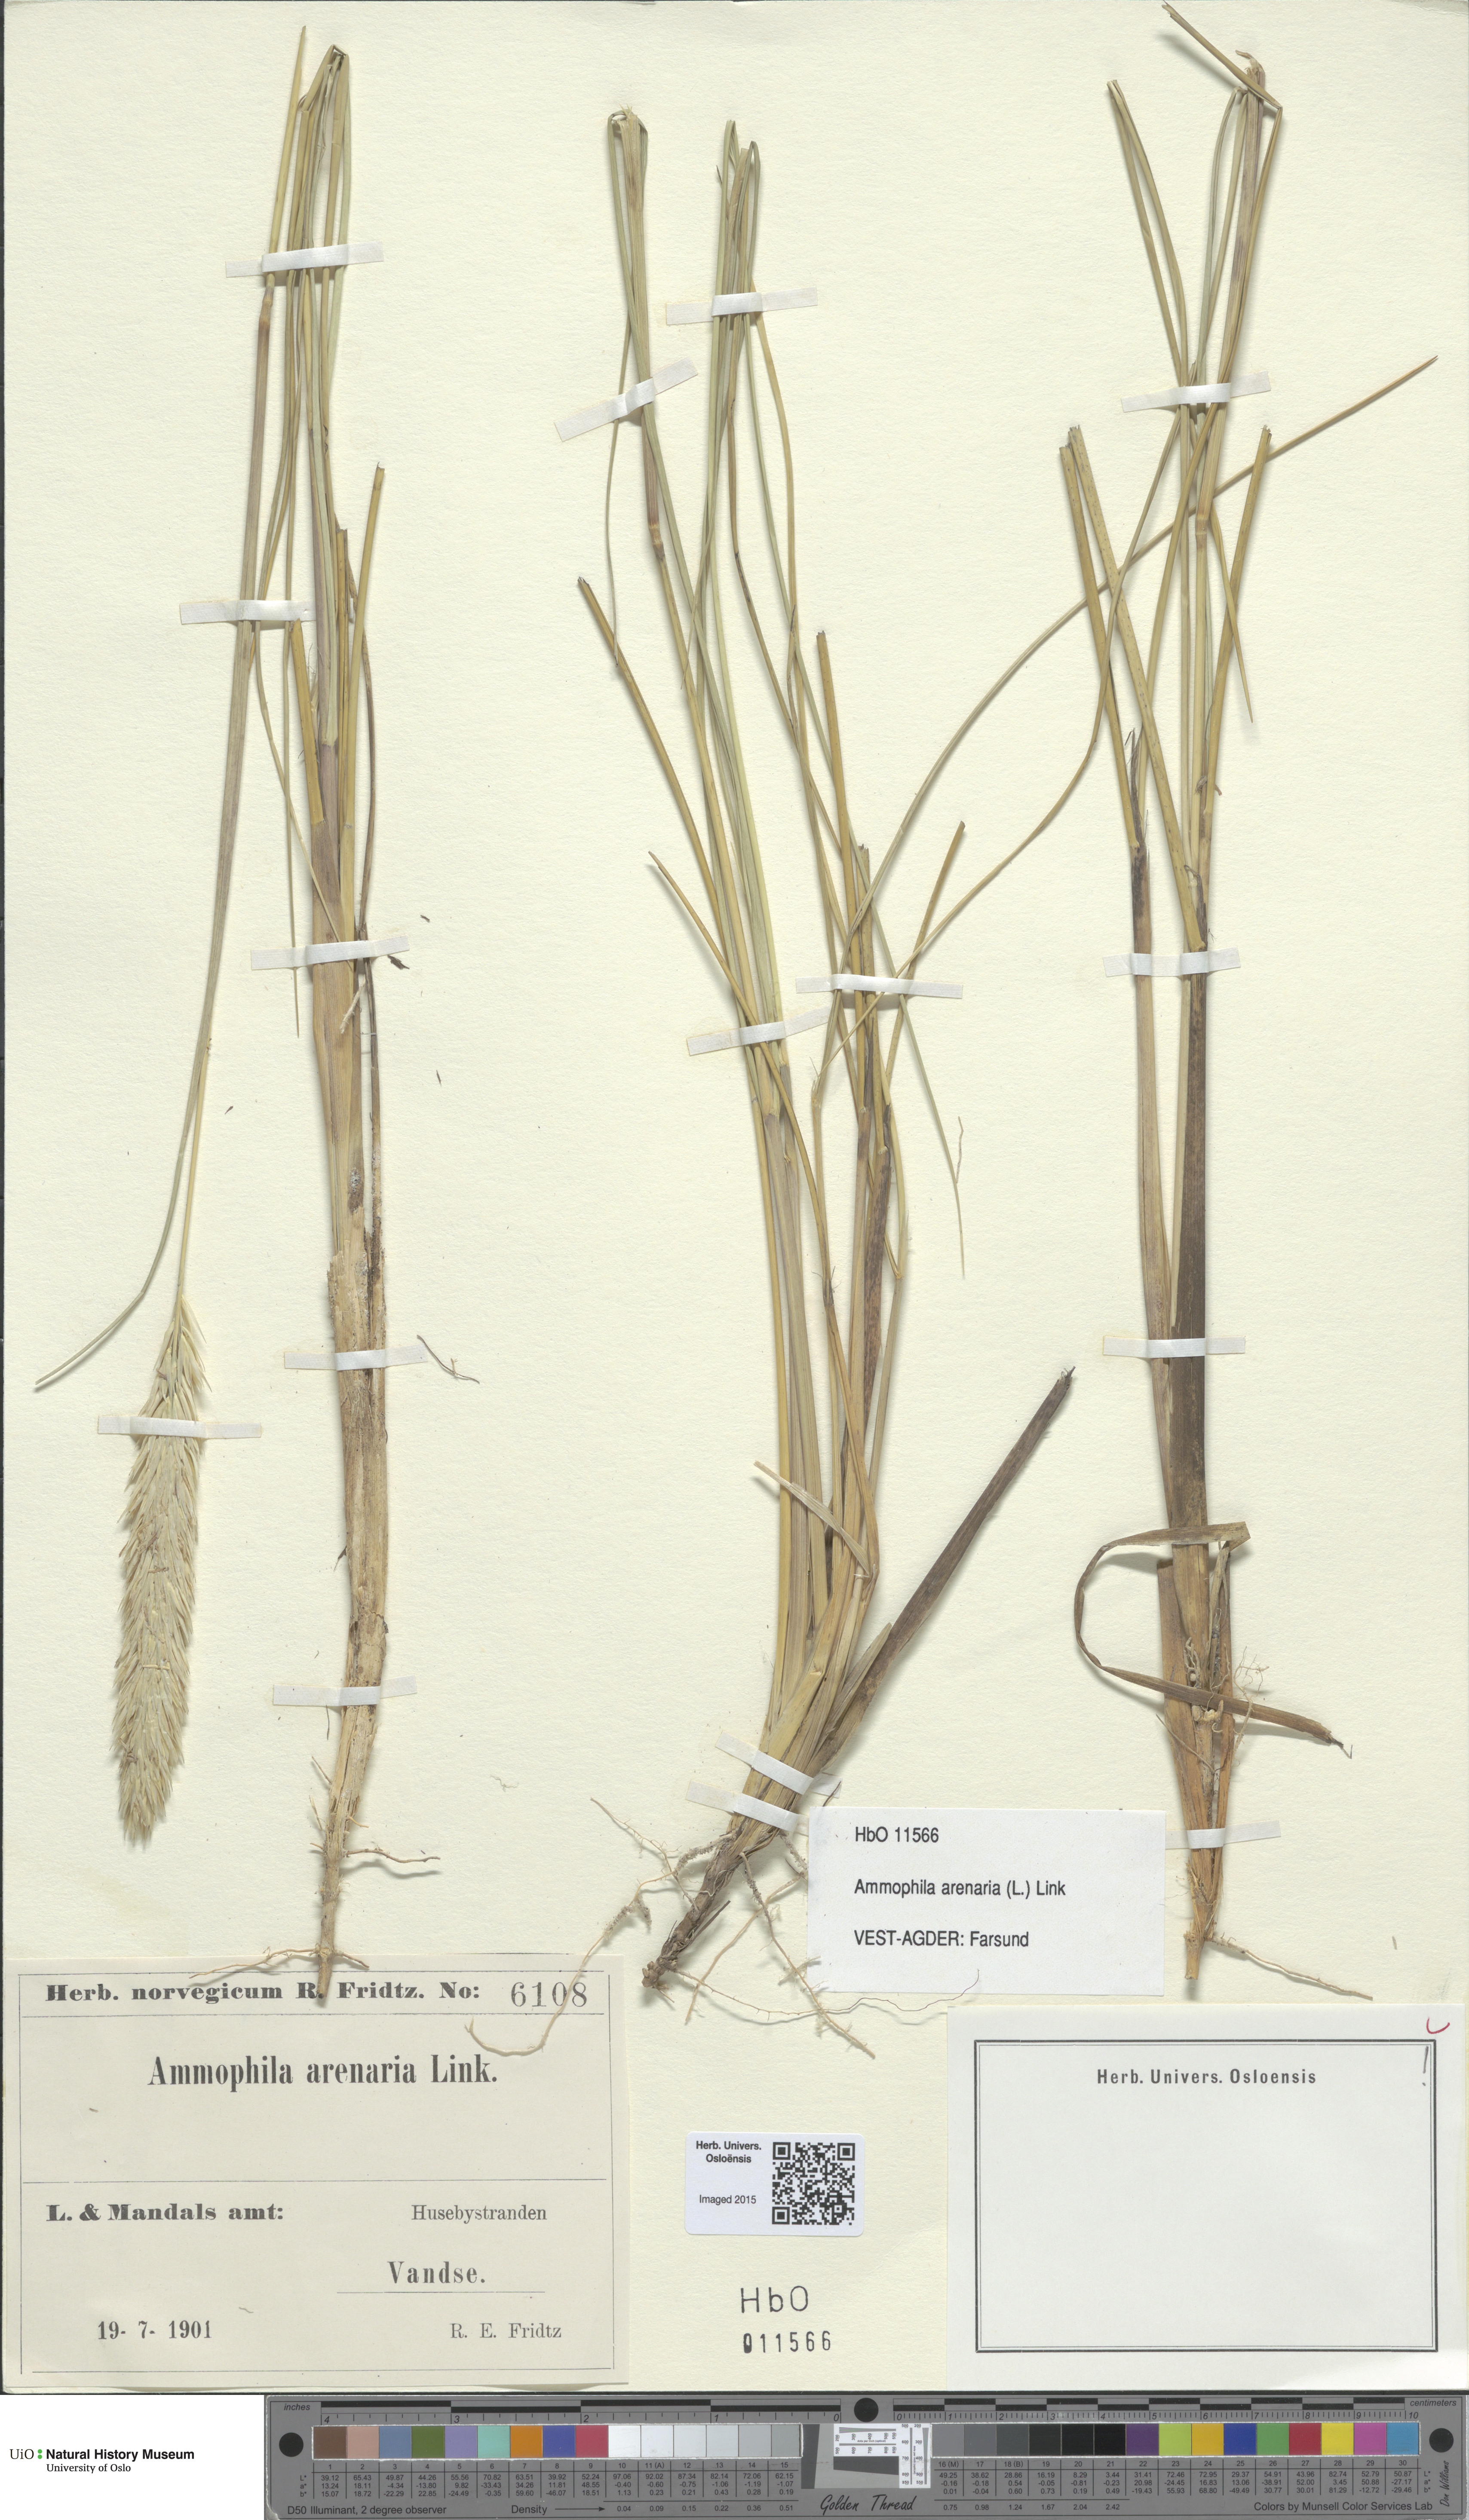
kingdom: Plantae
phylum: Tracheophyta
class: Liliopsida
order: Poales
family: Poaceae
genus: Calamagrostis
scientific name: Calamagrostis arenaria
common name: European beachgrass
